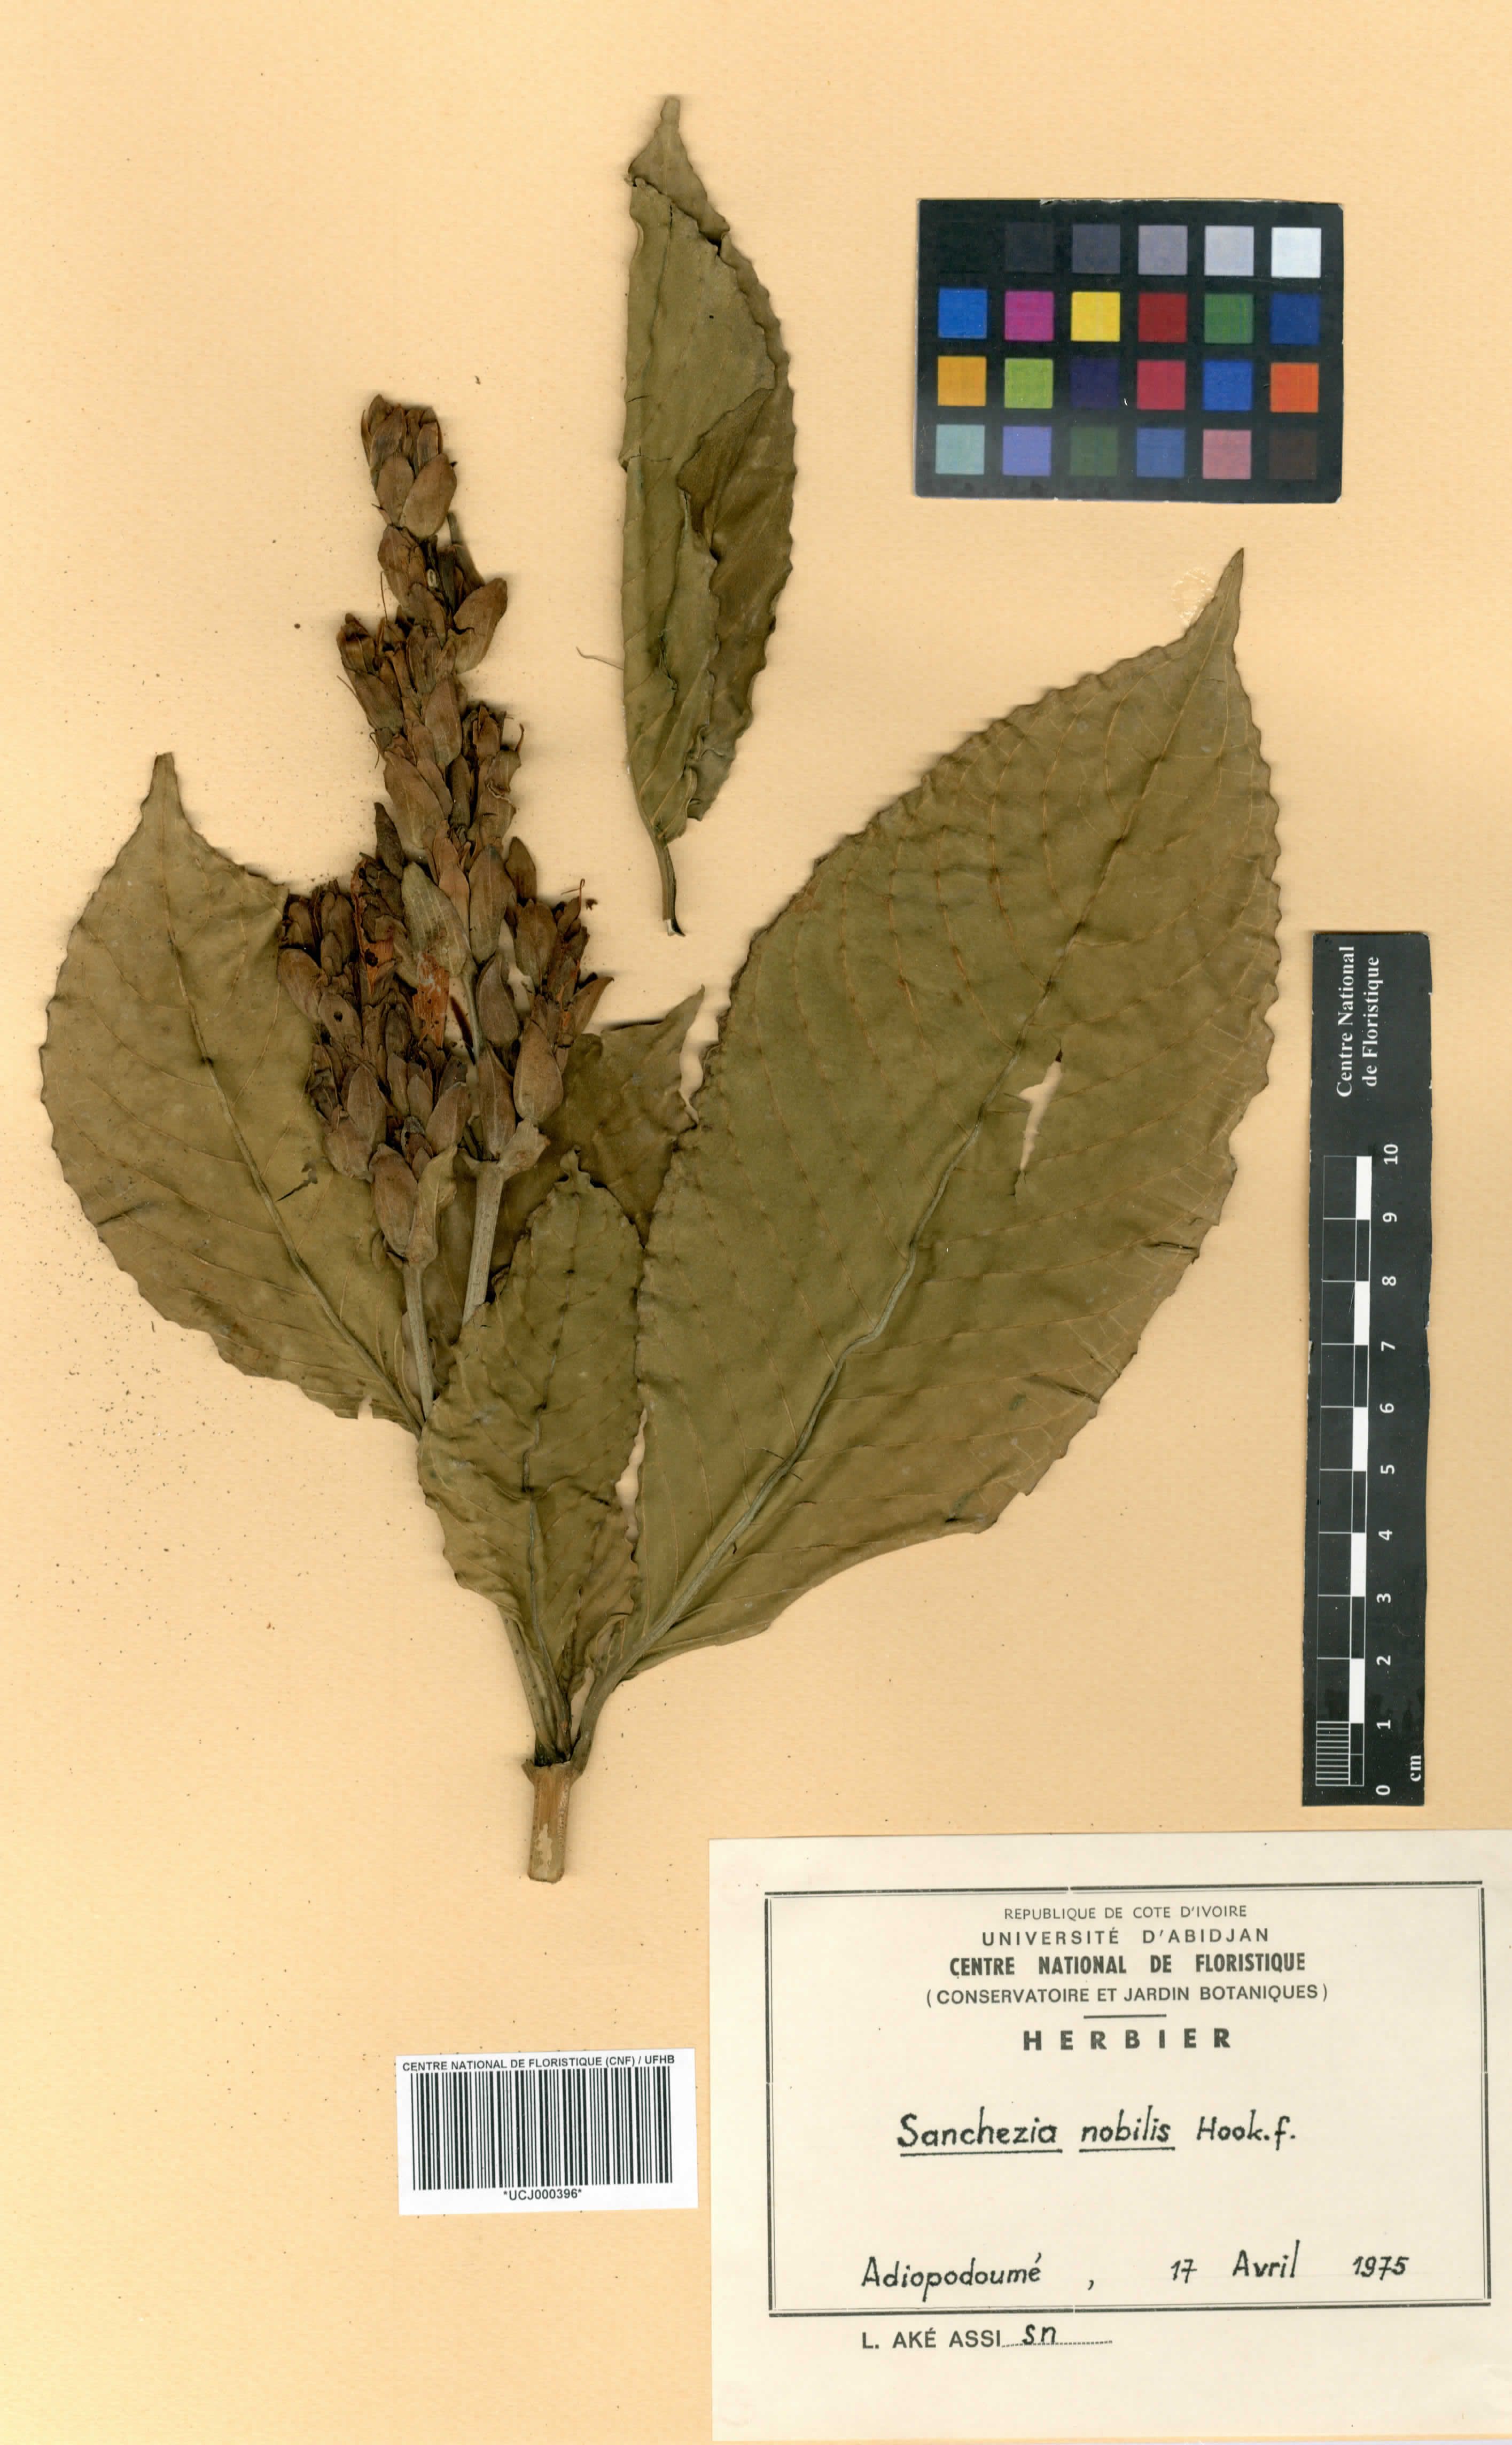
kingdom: Plantae
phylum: Tracheophyta
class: Magnoliopsida
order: Lamiales
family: Acanthaceae
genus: Sanchezia
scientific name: Sanchezia oblonga
